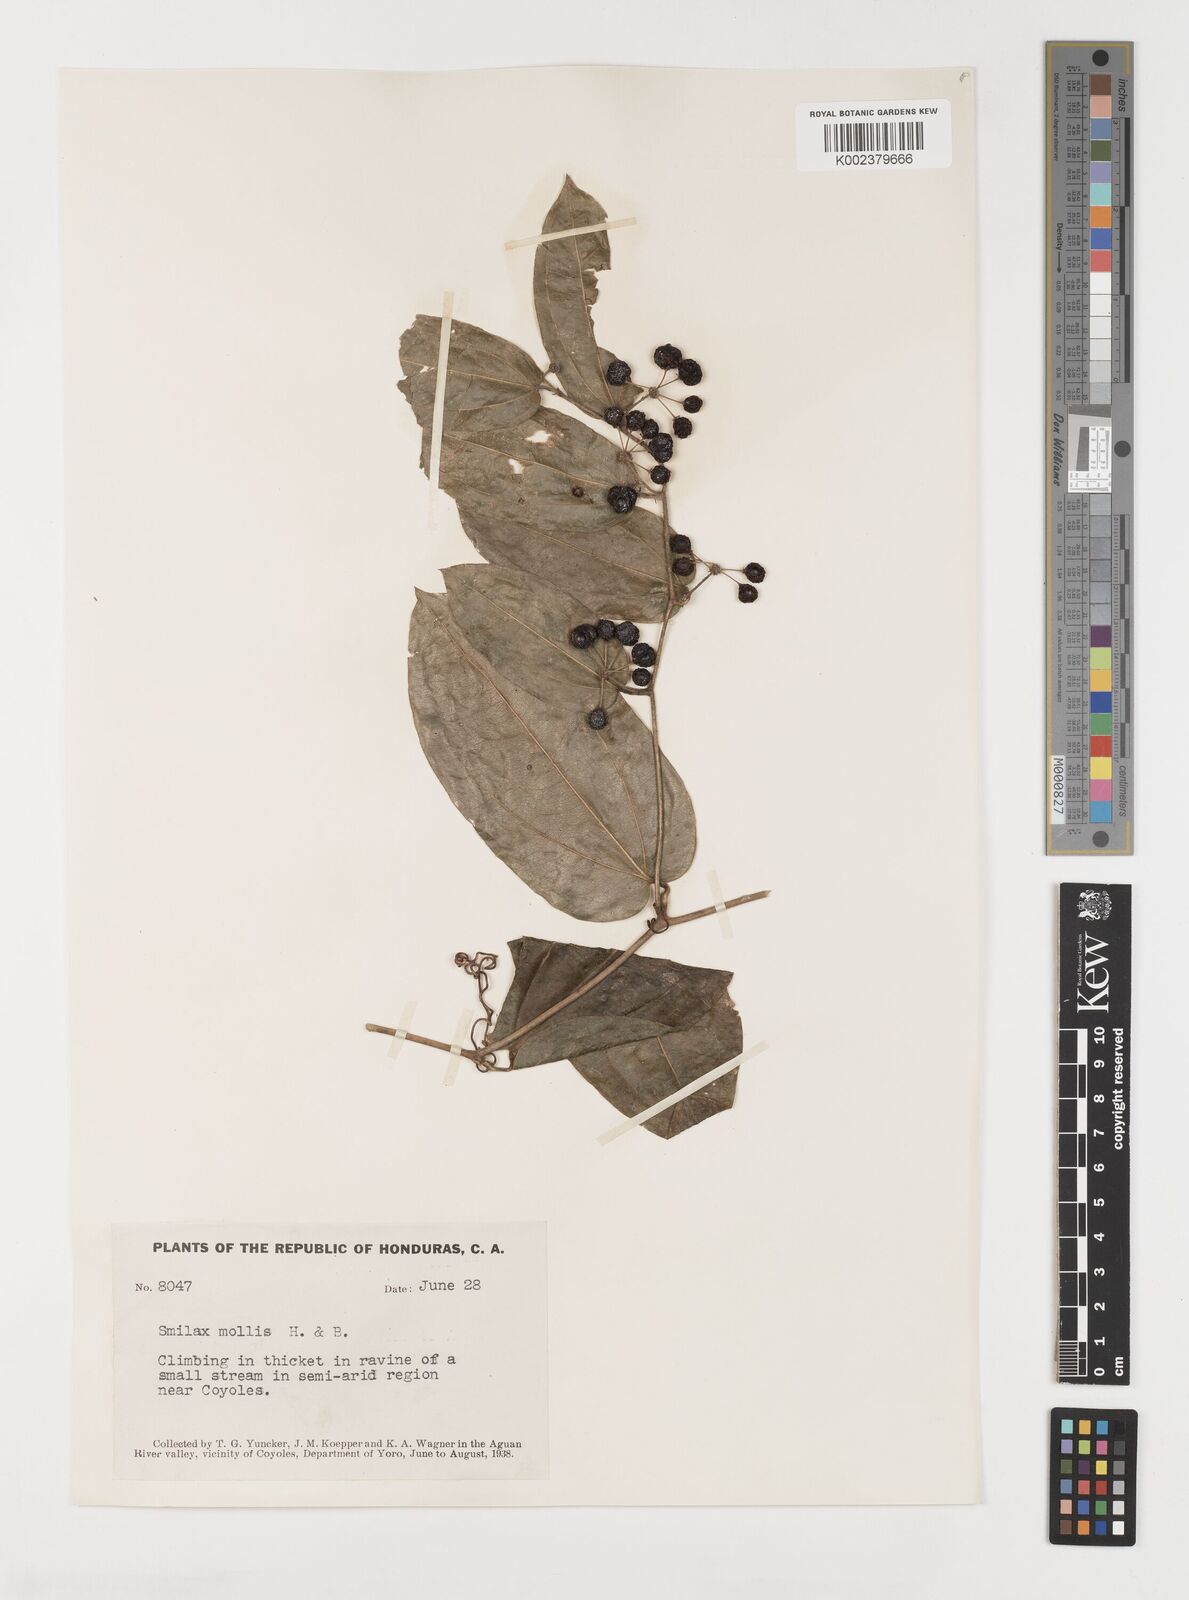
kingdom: Plantae
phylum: Tracheophyta
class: Liliopsida
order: Liliales
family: Smilacaceae
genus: Smilax
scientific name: Smilax mollis
